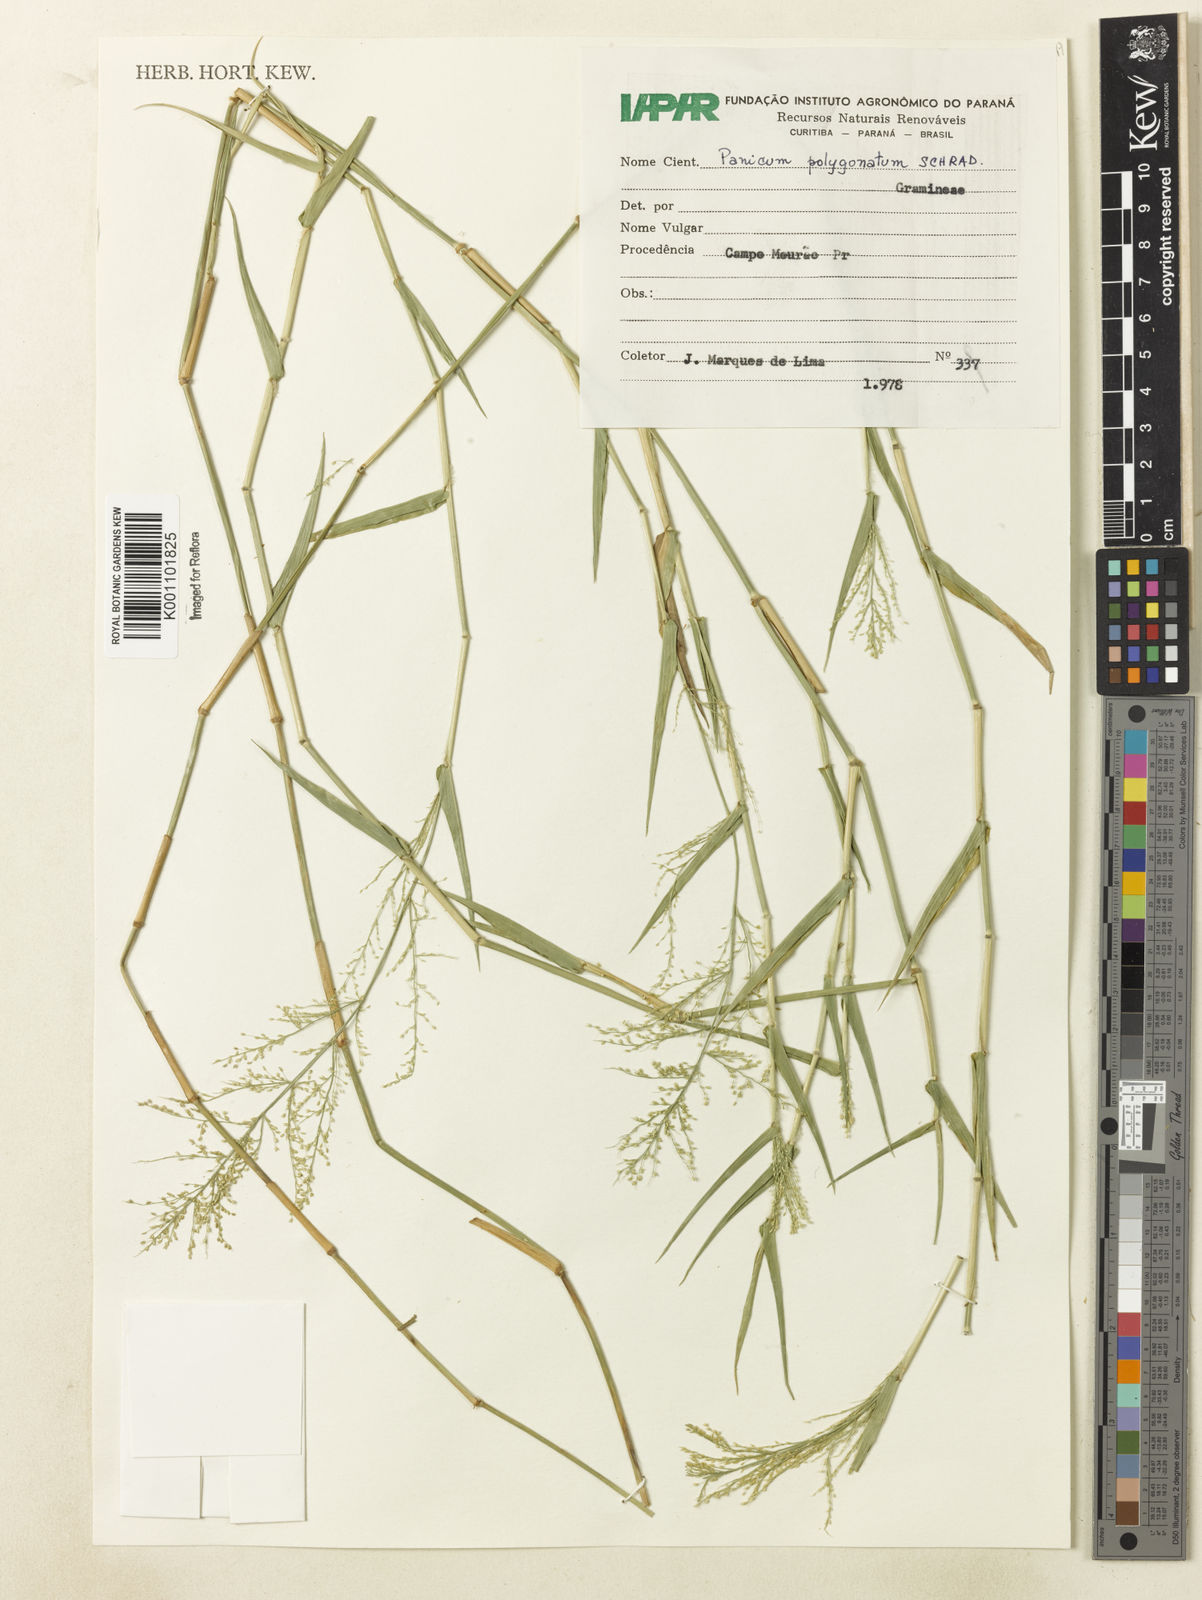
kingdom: Plantae
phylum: Tracheophyta
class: Liliopsida
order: Poales
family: Poaceae
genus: Rugoloa
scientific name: Rugoloa polygonata
